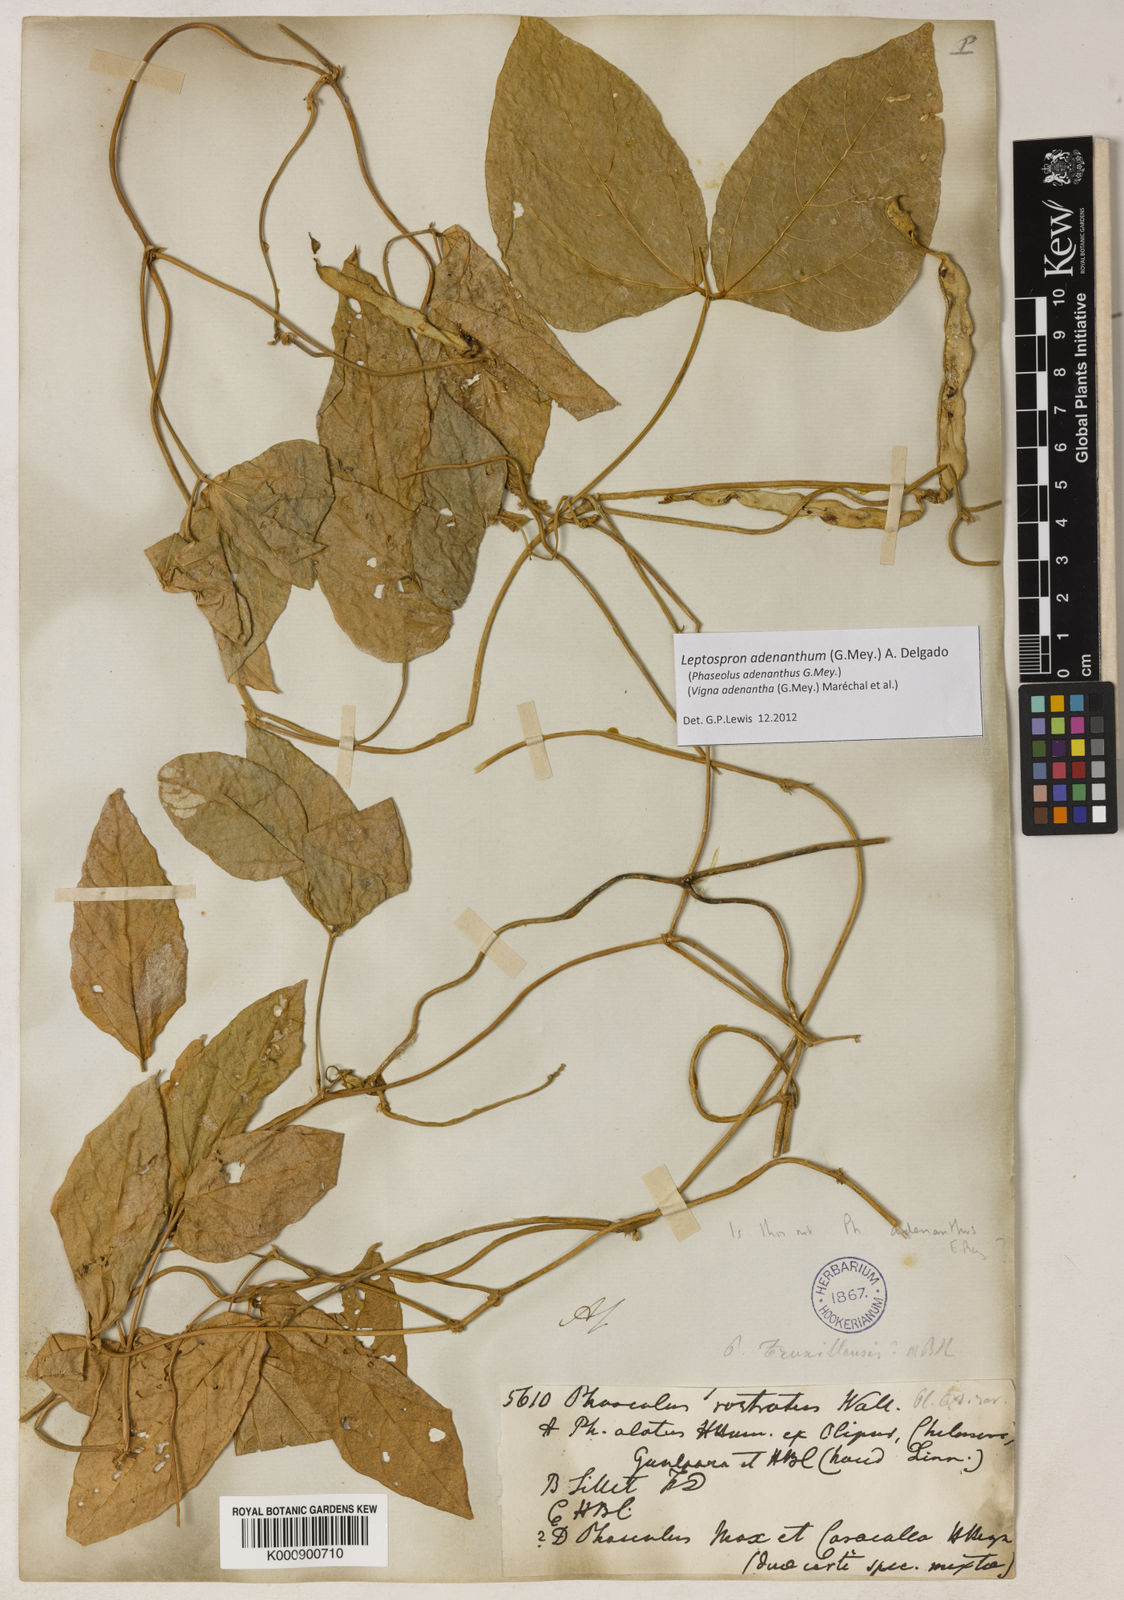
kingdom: Plantae
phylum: Tracheophyta
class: Magnoliopsida
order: Fabales
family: Fabaceae
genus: Leptospron
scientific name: Leptospron adenanthum
